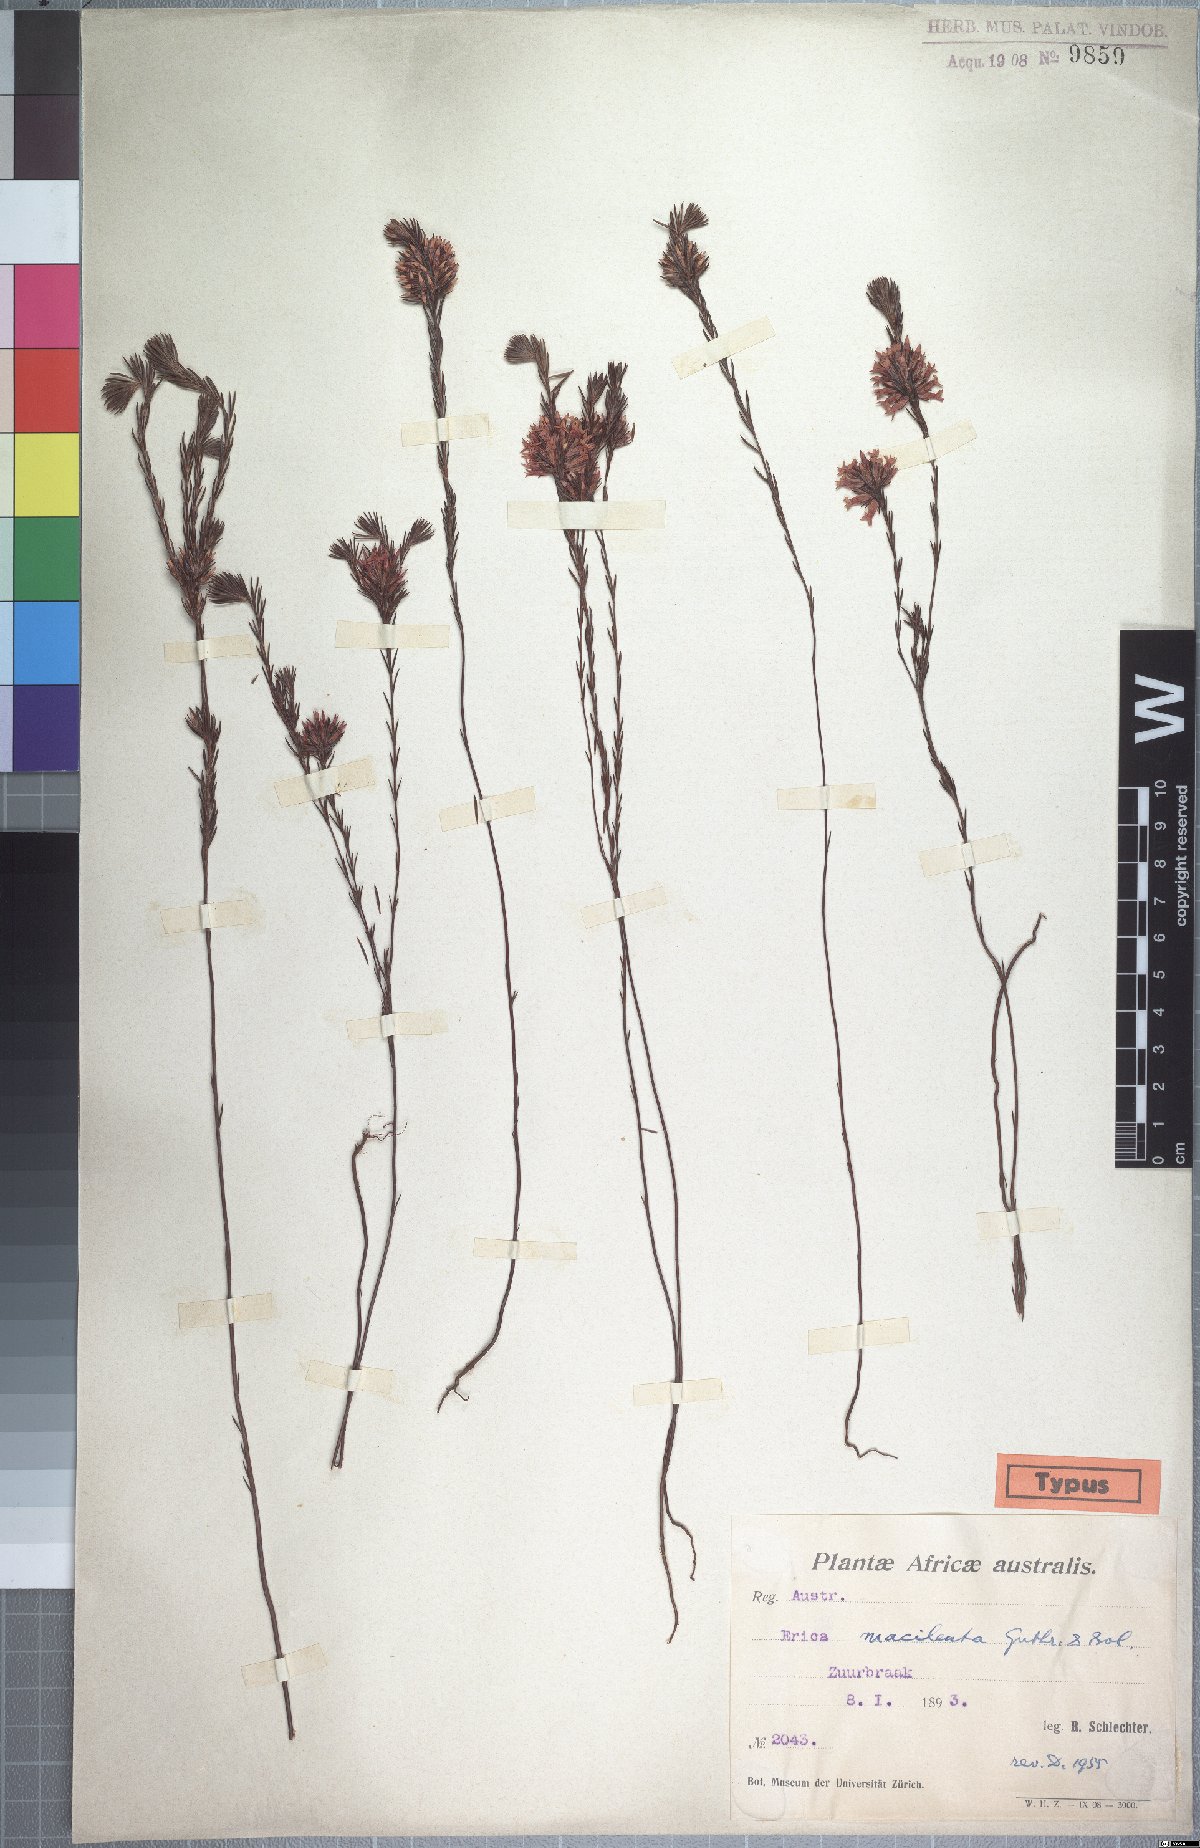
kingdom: Plantae
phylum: Tracheophyta
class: Magnoliopsida
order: Ericales
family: Ericaceae
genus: Erica
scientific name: Erica macilenta
